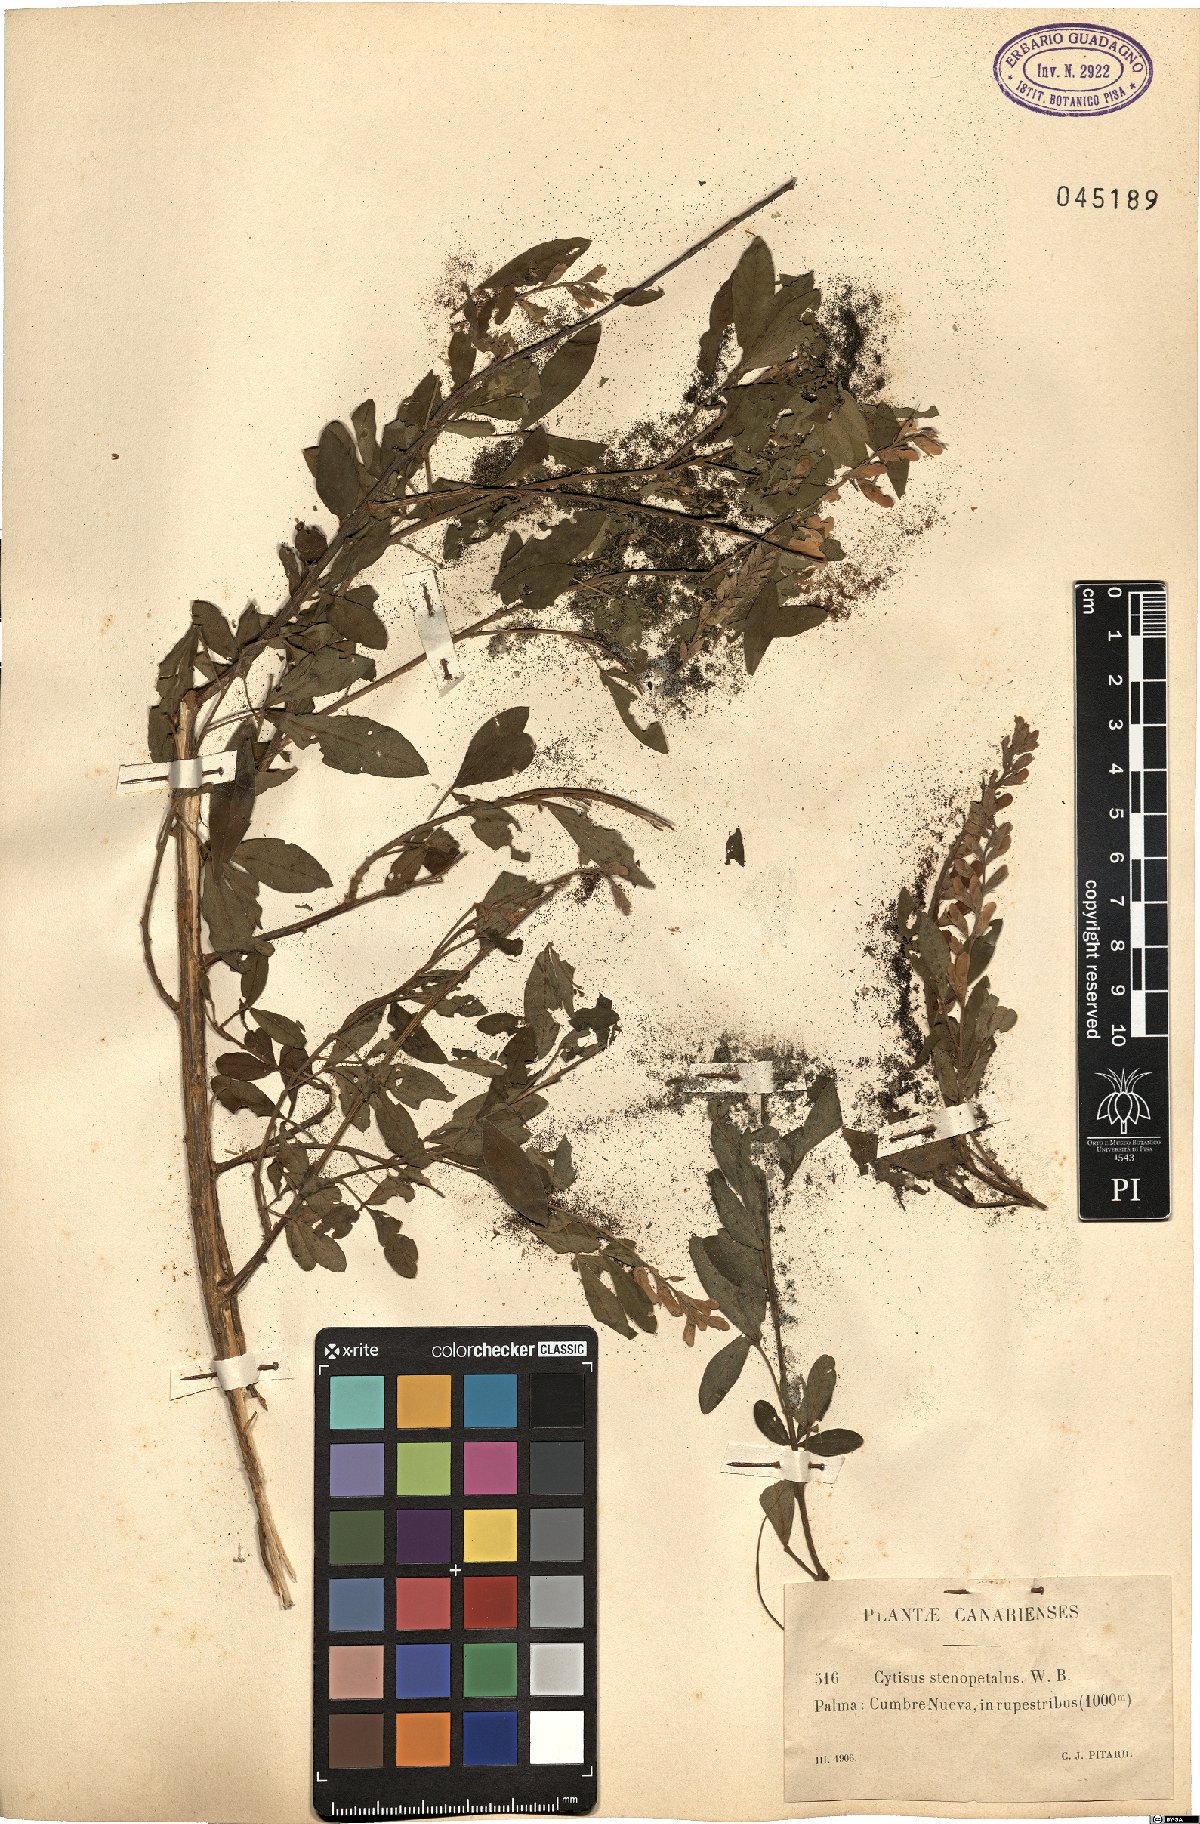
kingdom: Plantae
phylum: Tracheophyta
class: Magnoliopsida
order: Fabales
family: Fabaceae
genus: Genista
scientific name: Genista stenopetala
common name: Leafy broom
